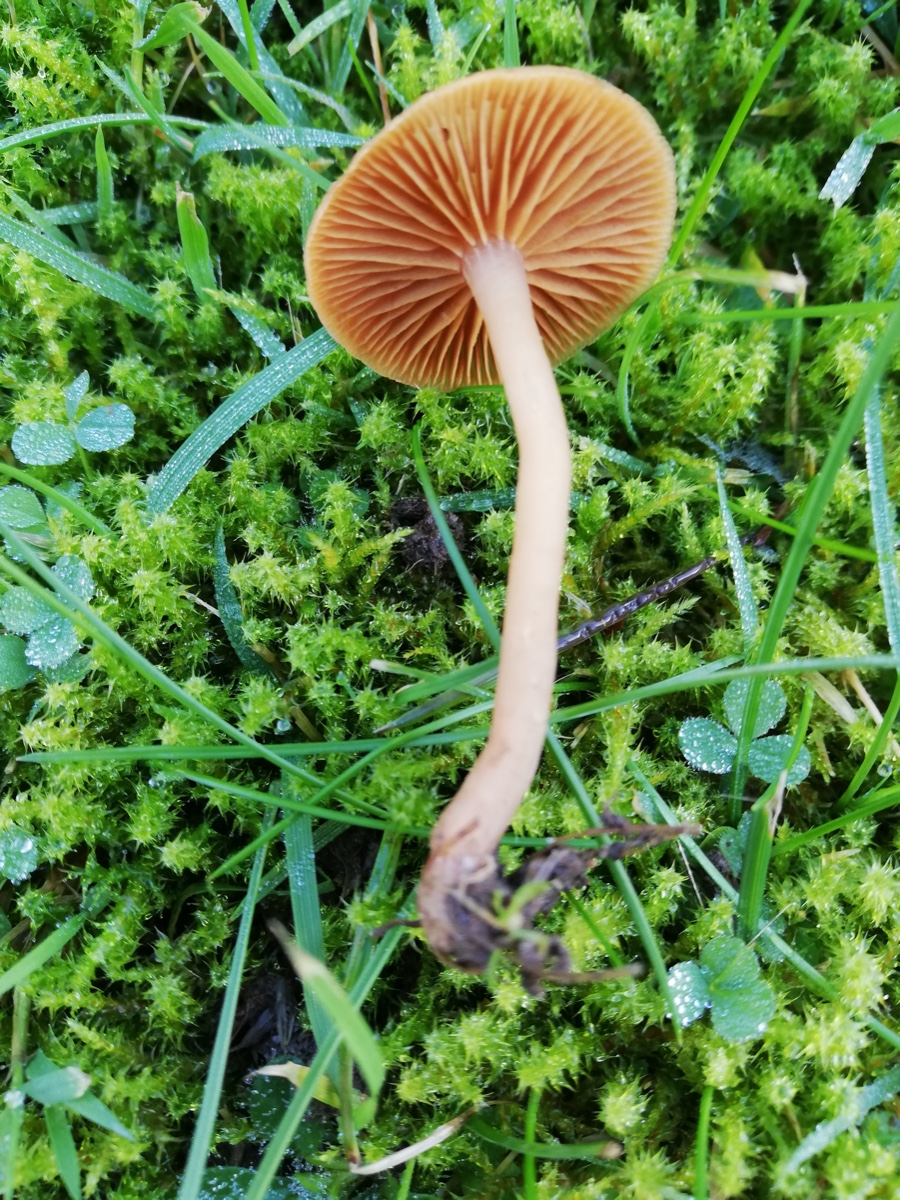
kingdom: Fungi
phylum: Basidiomycota
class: Agaricomycetes
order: Agaricales
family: Tubariaceae
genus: Tubaria
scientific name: Tubaria furfuracea
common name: kliddet fnughat
